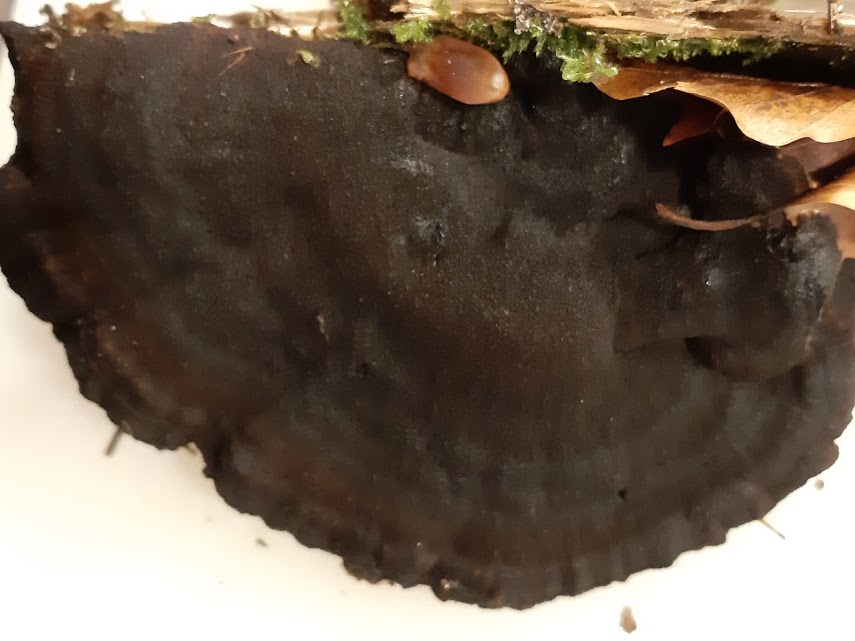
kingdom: Fungi
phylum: Basidiomycota
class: Agaricomycetes
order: Polyporales
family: Ischnodermataceae
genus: Ischnoderma
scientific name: Ischnoderma
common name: tjæreporesvamp
